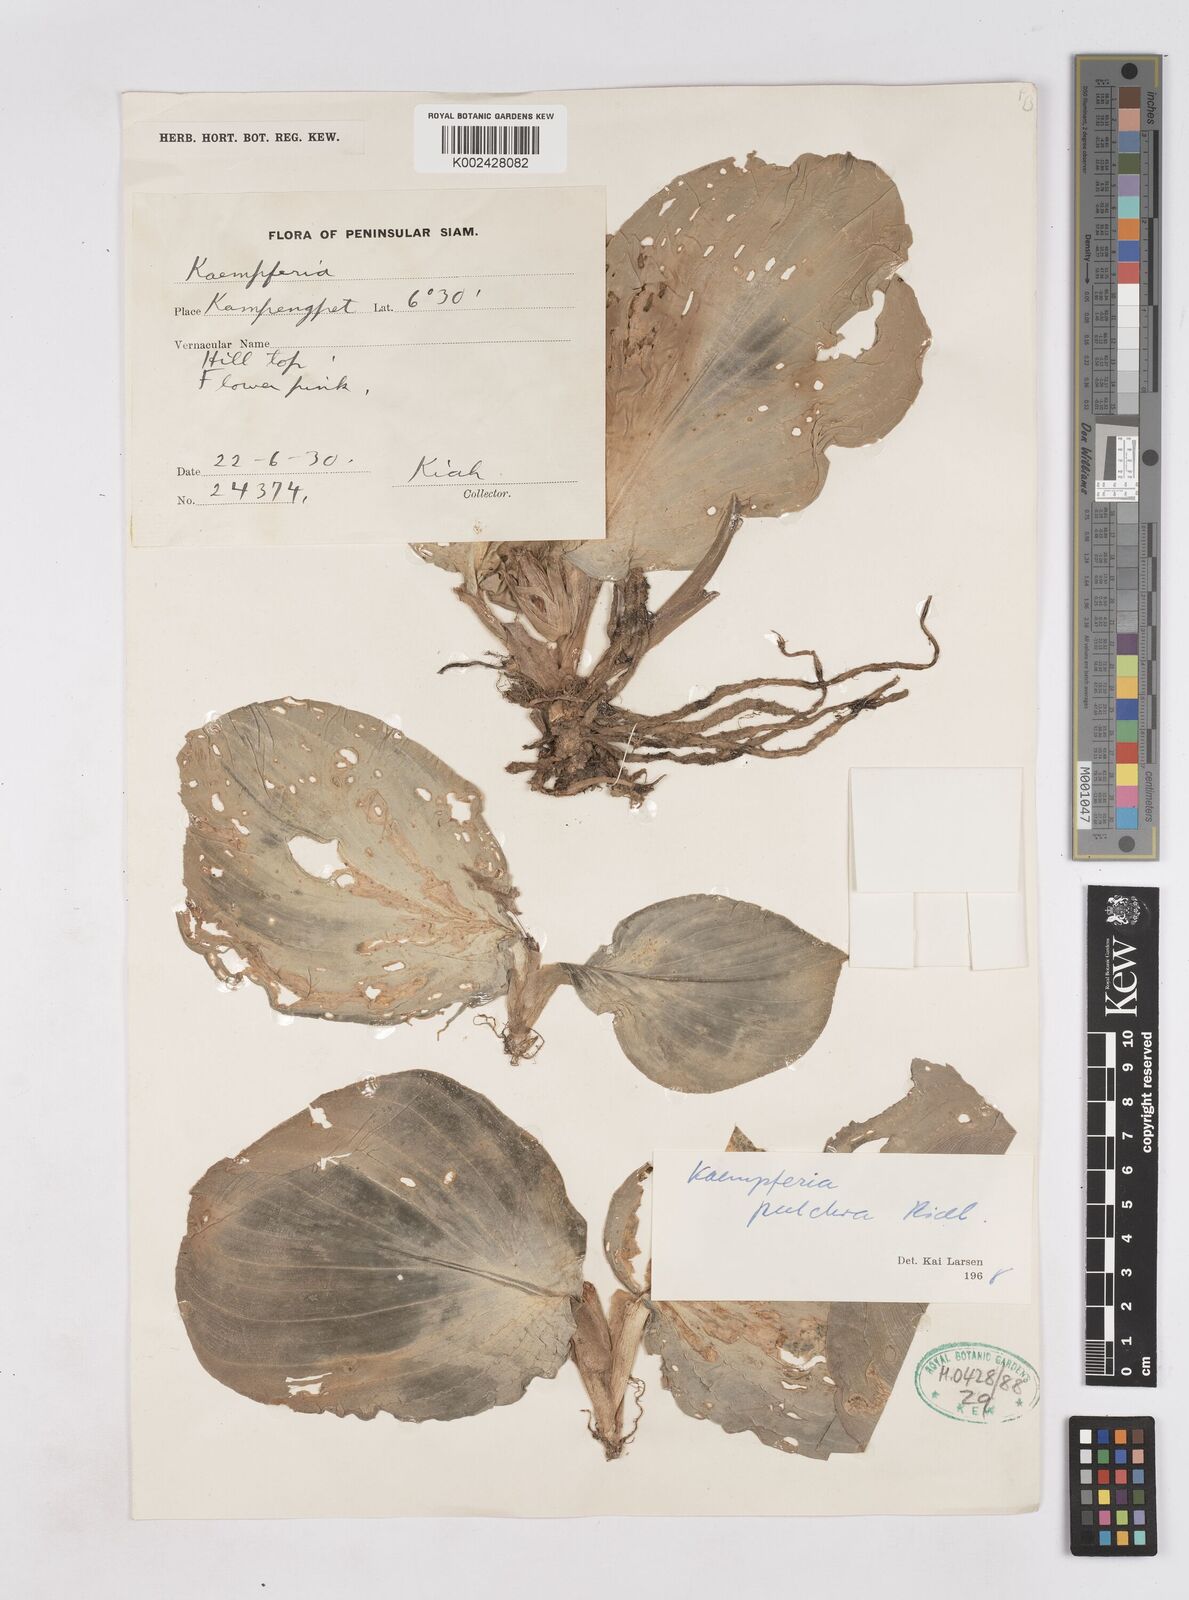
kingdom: Plantae
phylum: Tracheophyta
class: Liliopsida
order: Zingiberales
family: Zingiberaceae
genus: Kaempferia
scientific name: Kaempferia elegans
